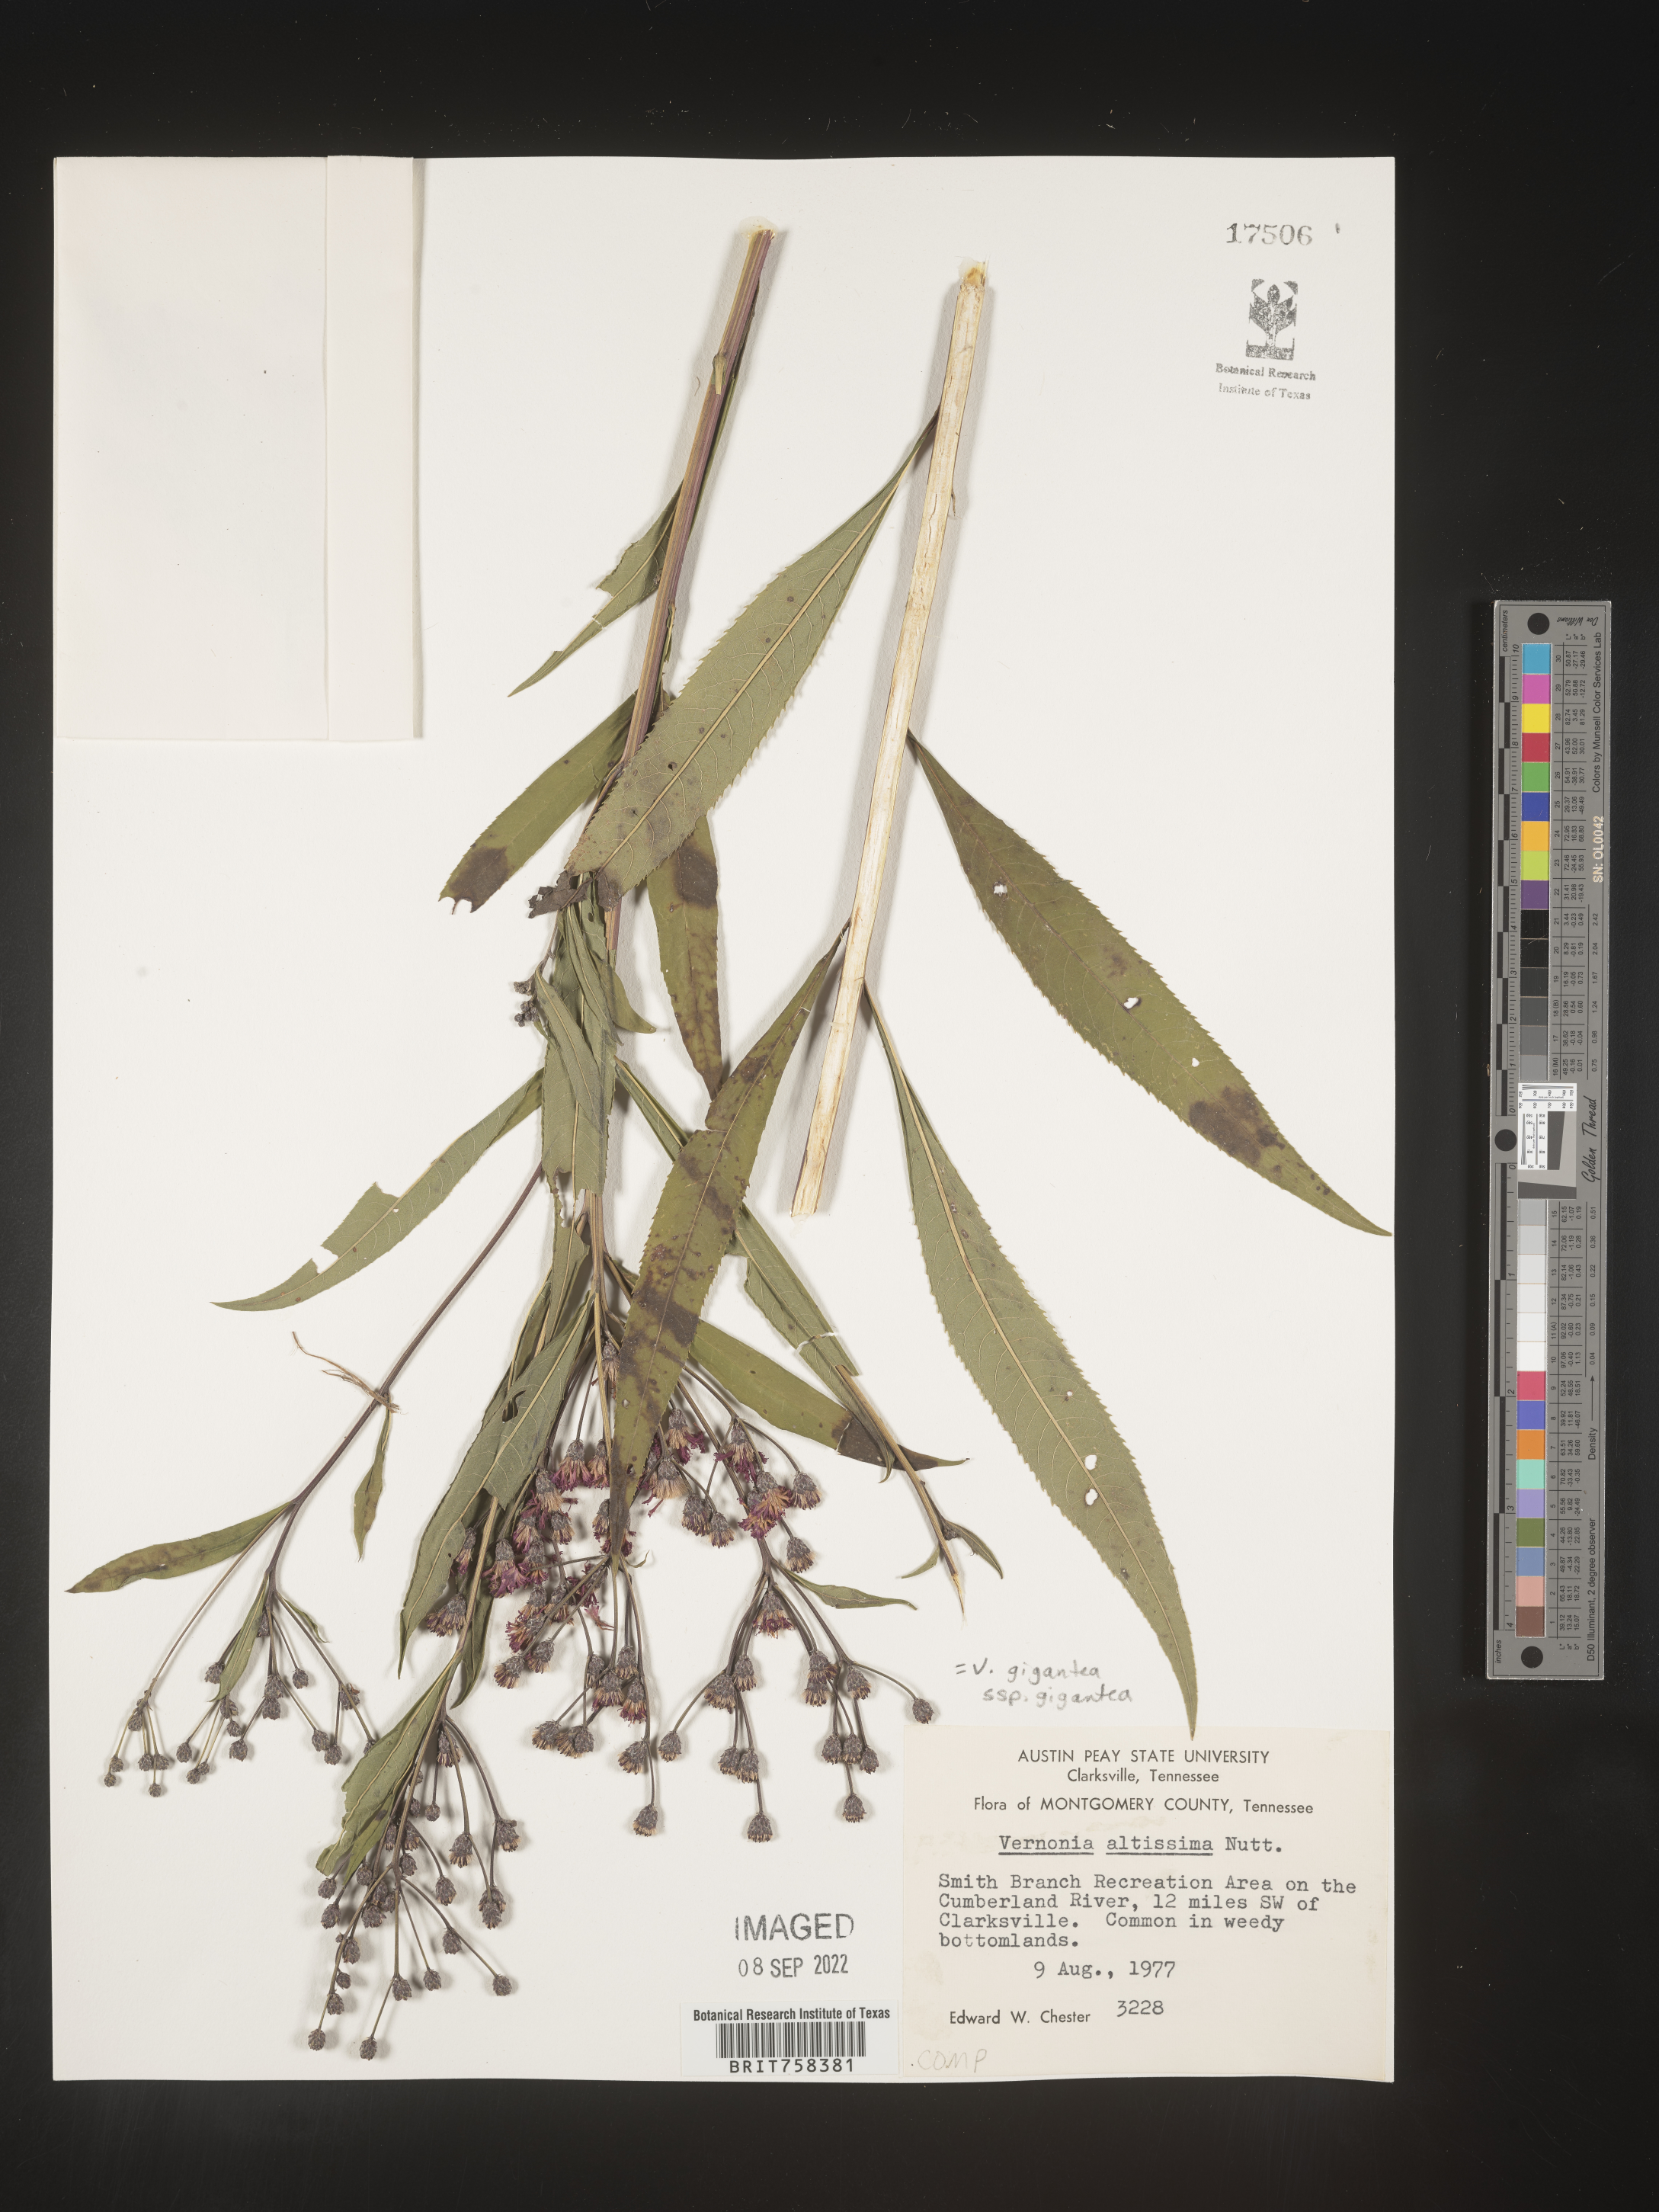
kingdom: Plantae
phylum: Tracheophyta
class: Magnoliopsida
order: Asterales
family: Asteraceae
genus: Vernonia
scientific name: Vernonia gigantea
